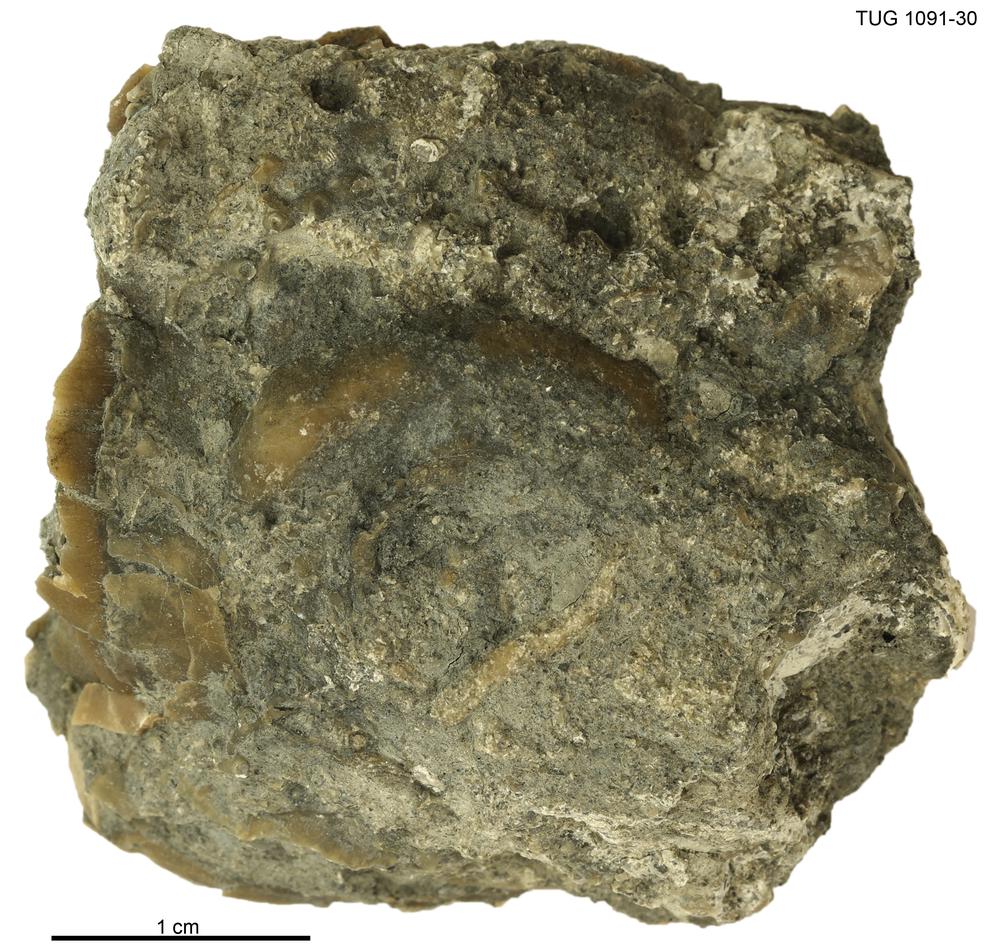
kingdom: Animalia
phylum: Mollusca
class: Gastropoda
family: Euomphalidae
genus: Euomphalopterus
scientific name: Euomphalopterus alatus
